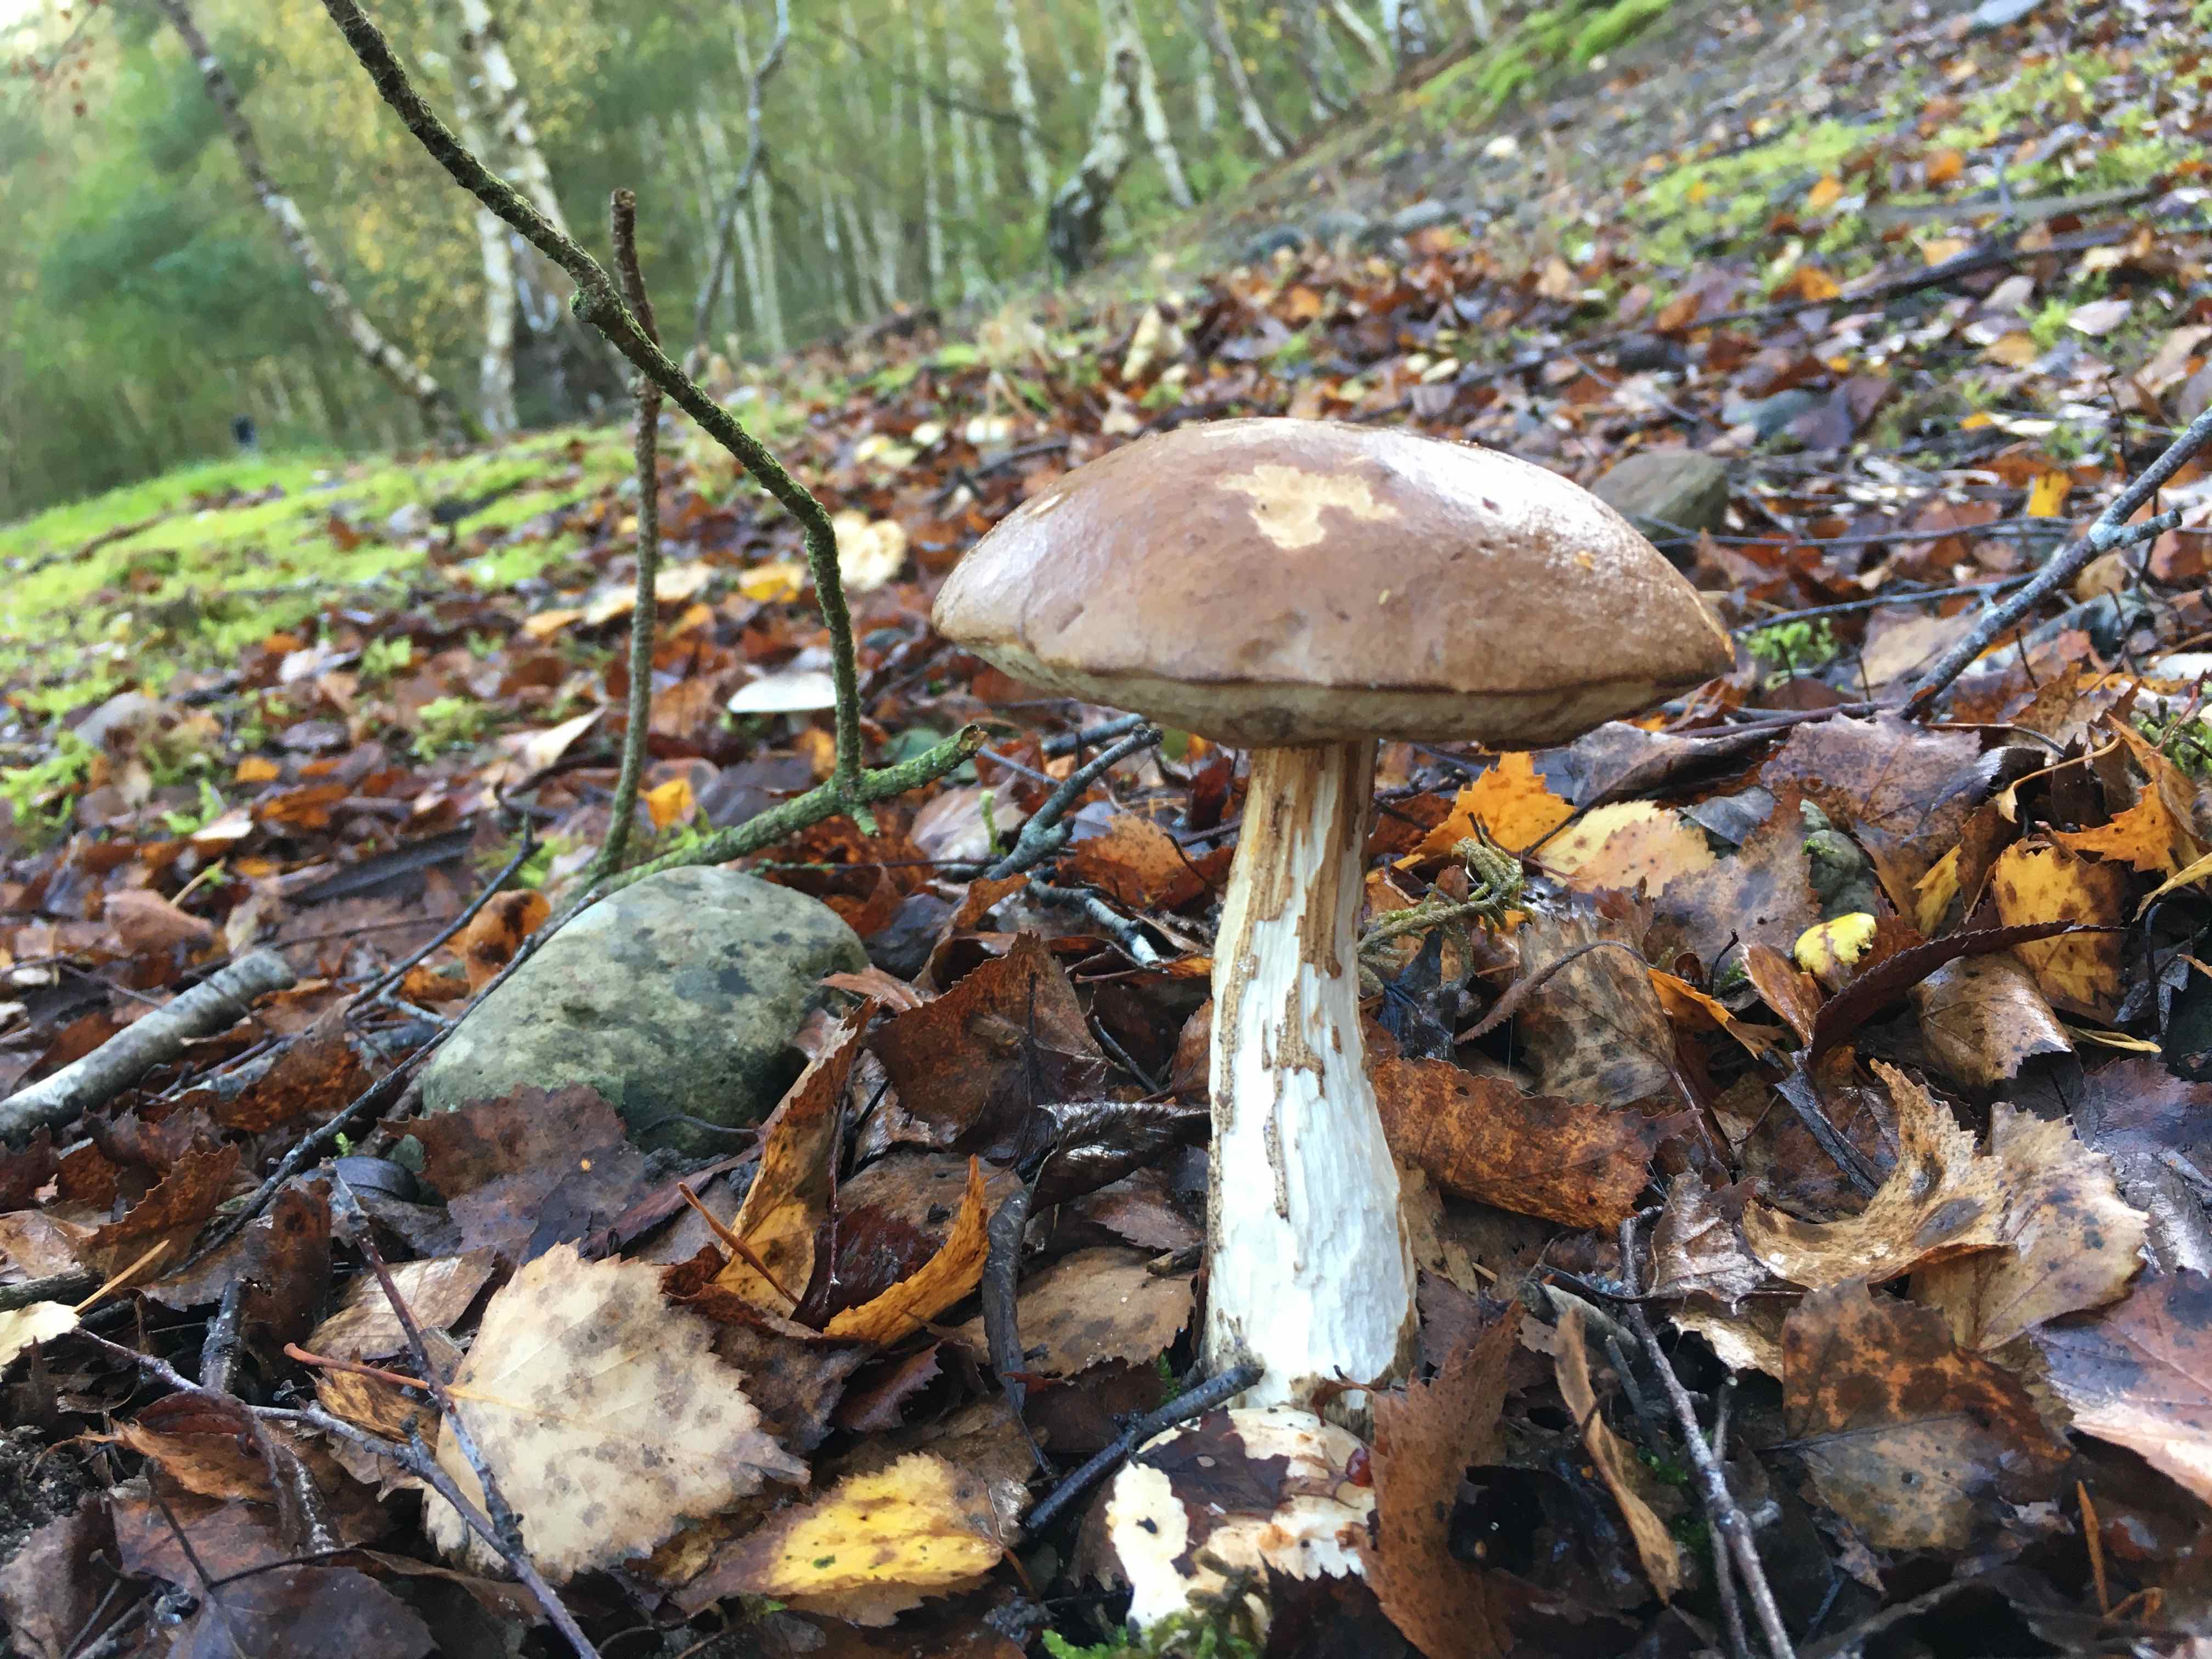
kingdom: Fungi
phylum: Basidiomycota
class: Agaricomycetes
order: Boletales
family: Boletaceae
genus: Leccinum
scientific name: Leccinum
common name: skælrørhat
